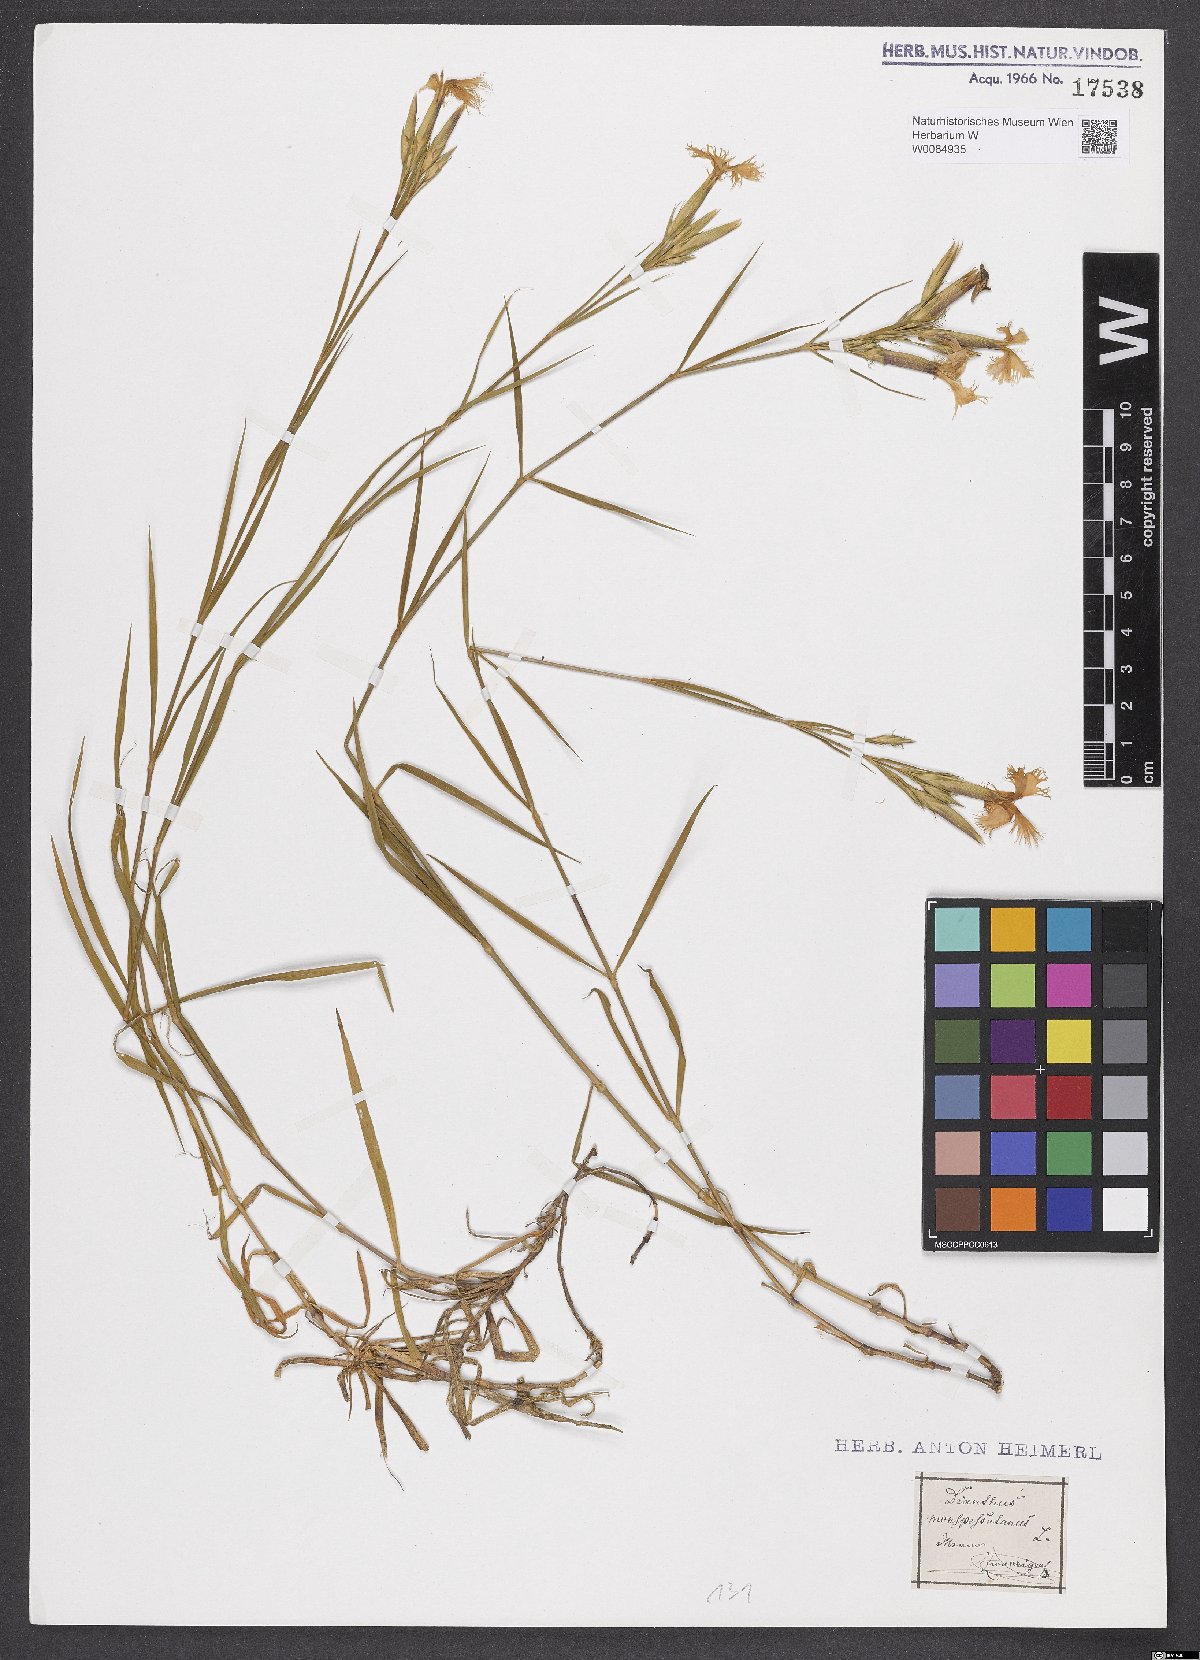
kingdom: Plantae
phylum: Tracheophyta
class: Magnoliopsida
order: Caryophyllales
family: Caryophyllaceae
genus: Dianthus
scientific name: Dianthus hyssopifolius
